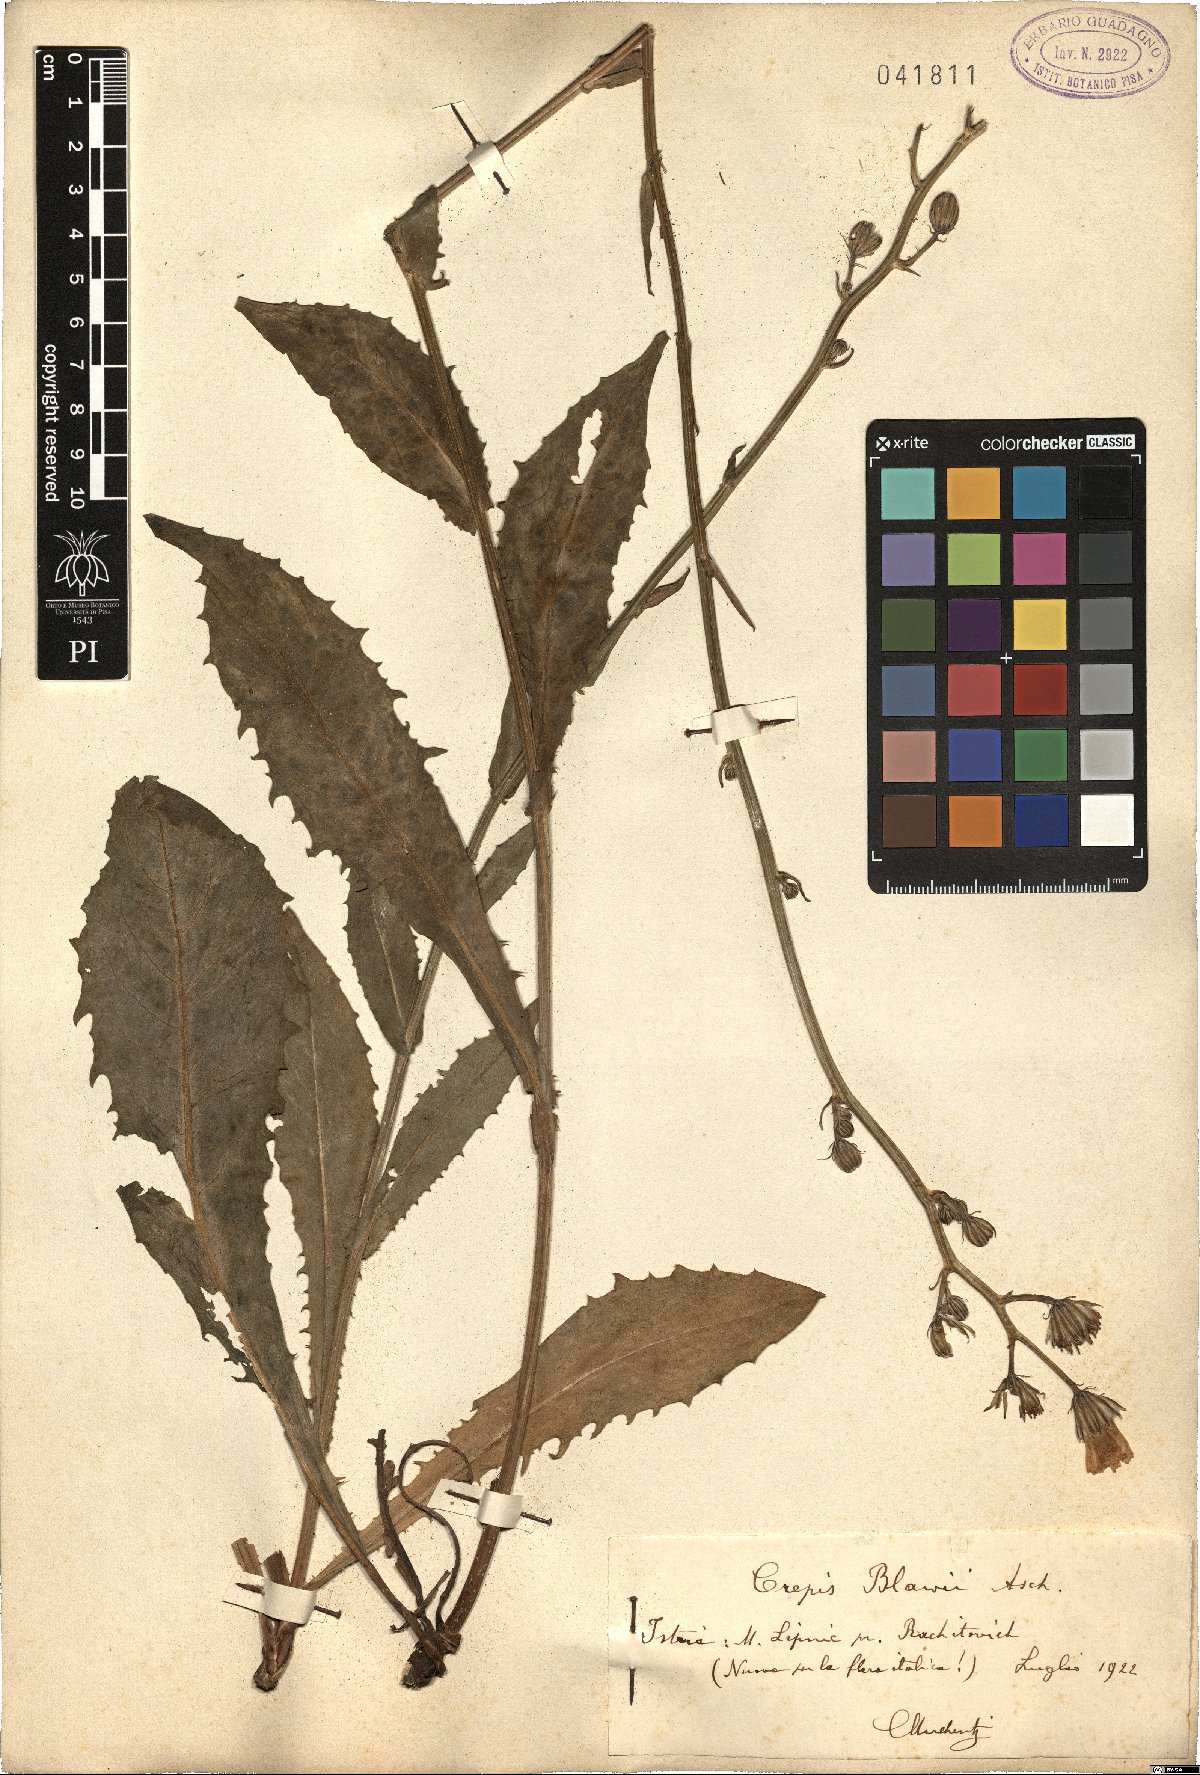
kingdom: Plantae
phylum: Tracheophyta
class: Magnoliopsida
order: Asterales
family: Asteraceae
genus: Crepis
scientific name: Crepis pannonica
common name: Pasture hawksbeard
